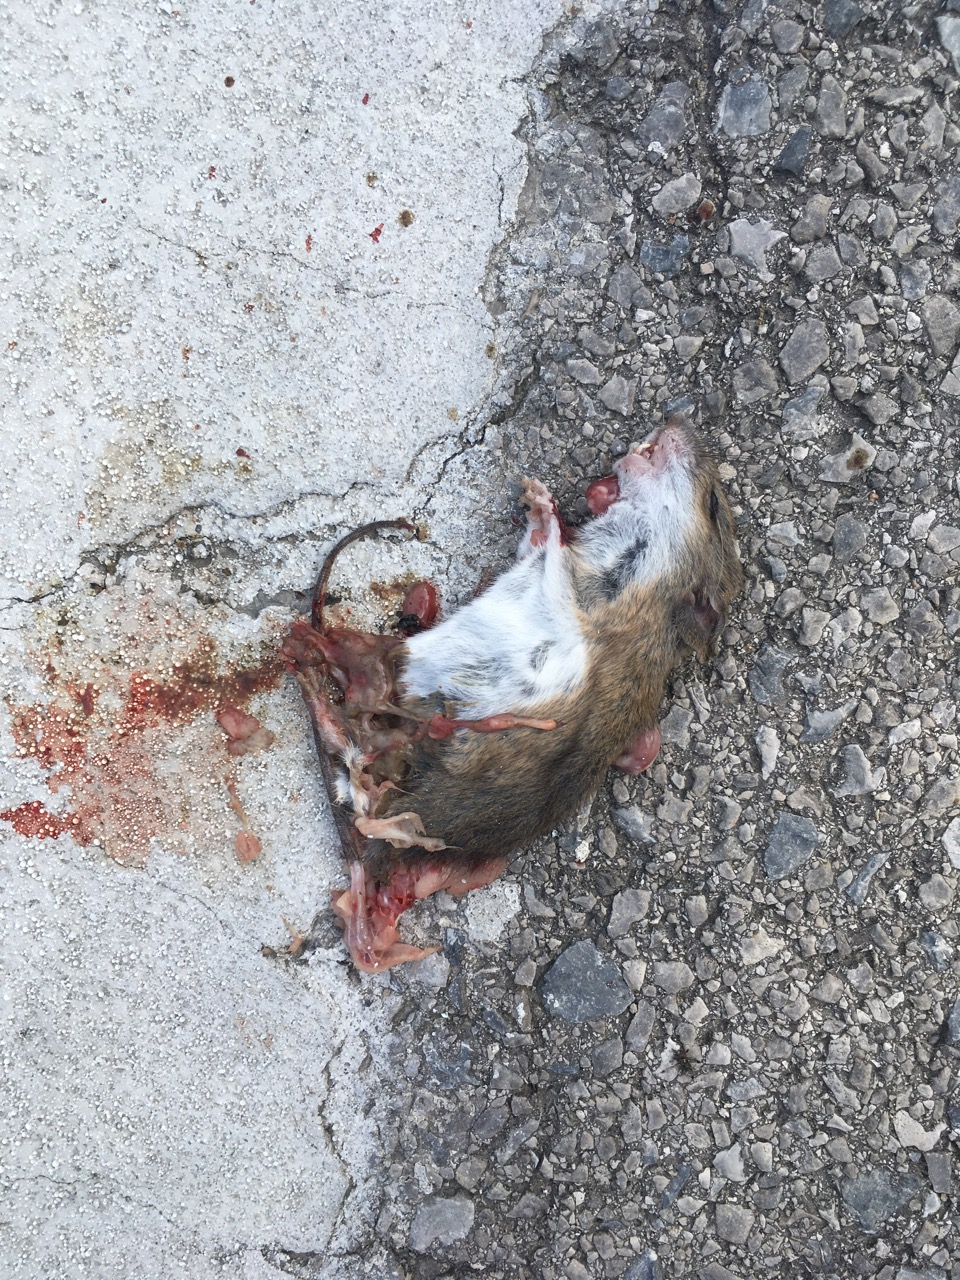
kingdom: Animalia
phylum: Chordata
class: Mammalia
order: Rodentia
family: Muridae
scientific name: Muridae
